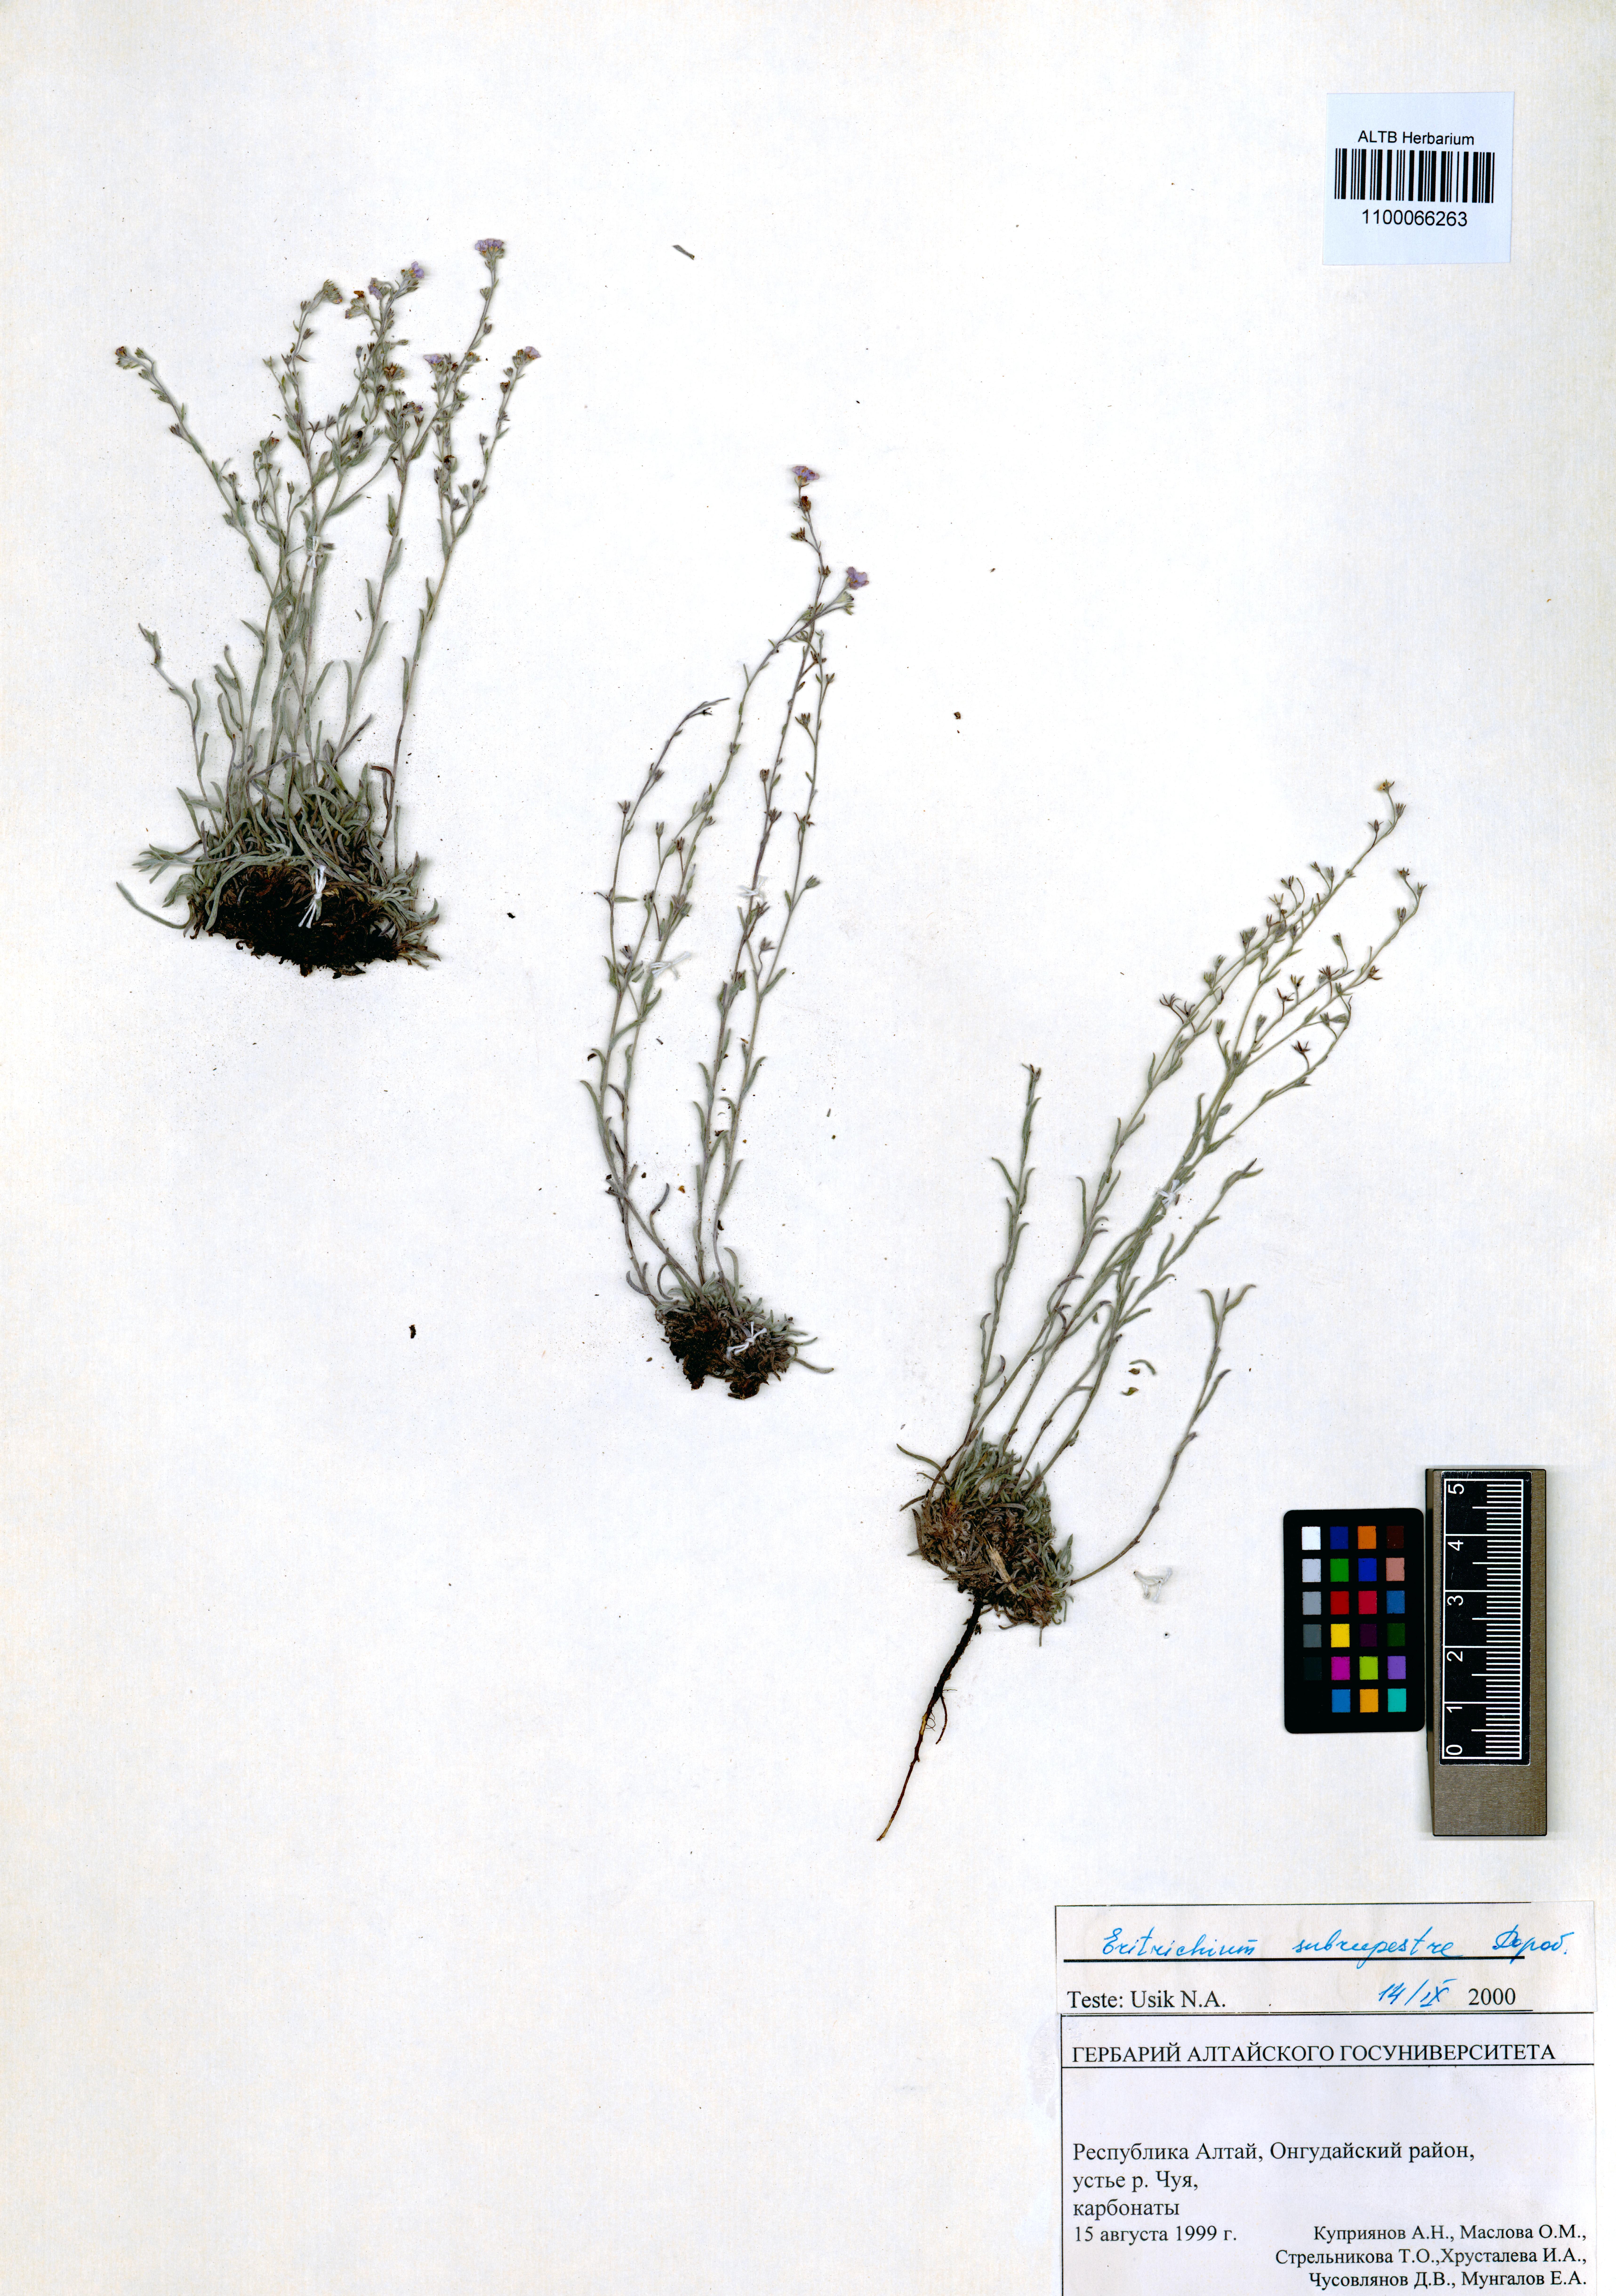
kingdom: Plantae
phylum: Tracheophyta
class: Magnoliopsida
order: Boraginales
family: Boraginaceae
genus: Eritrichium
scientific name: Eritrichium pauciflorum
